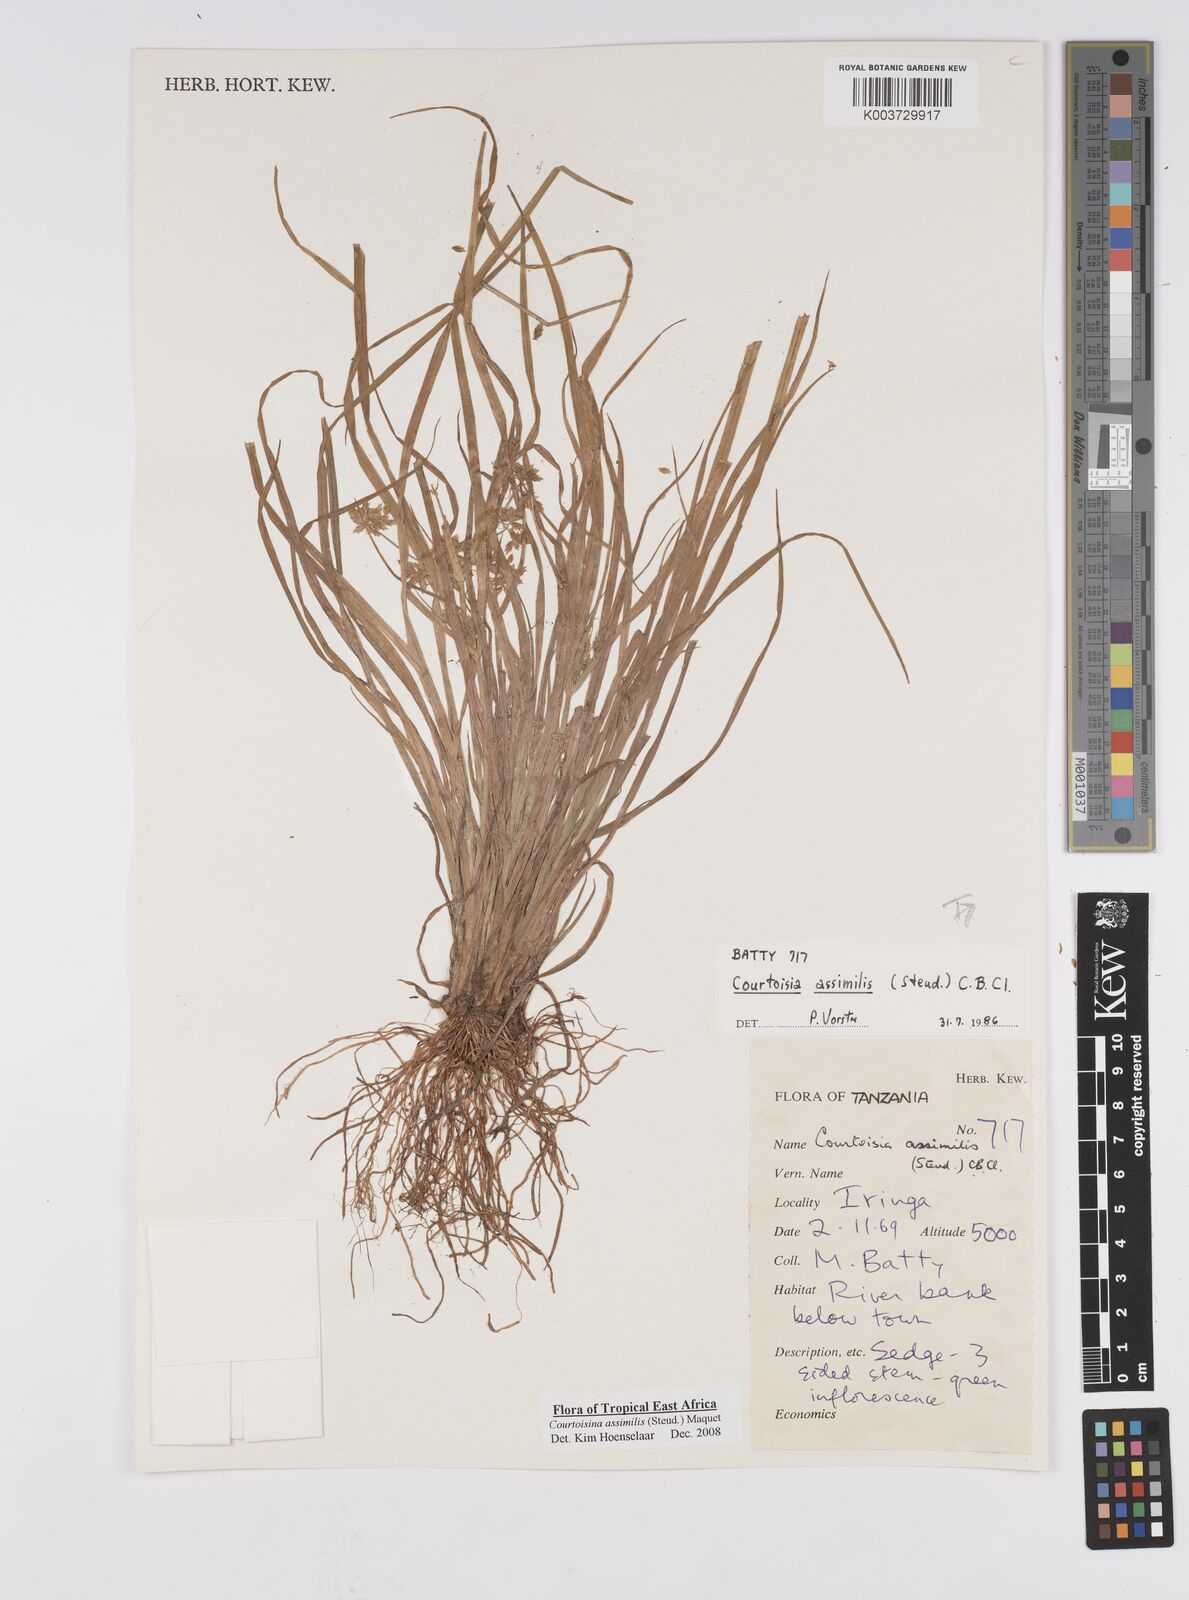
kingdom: Plantae
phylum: Tracheophyta
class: Liliopsida
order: Poales
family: Cyperaceae
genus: Cyperus
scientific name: Cyperus assimilis
